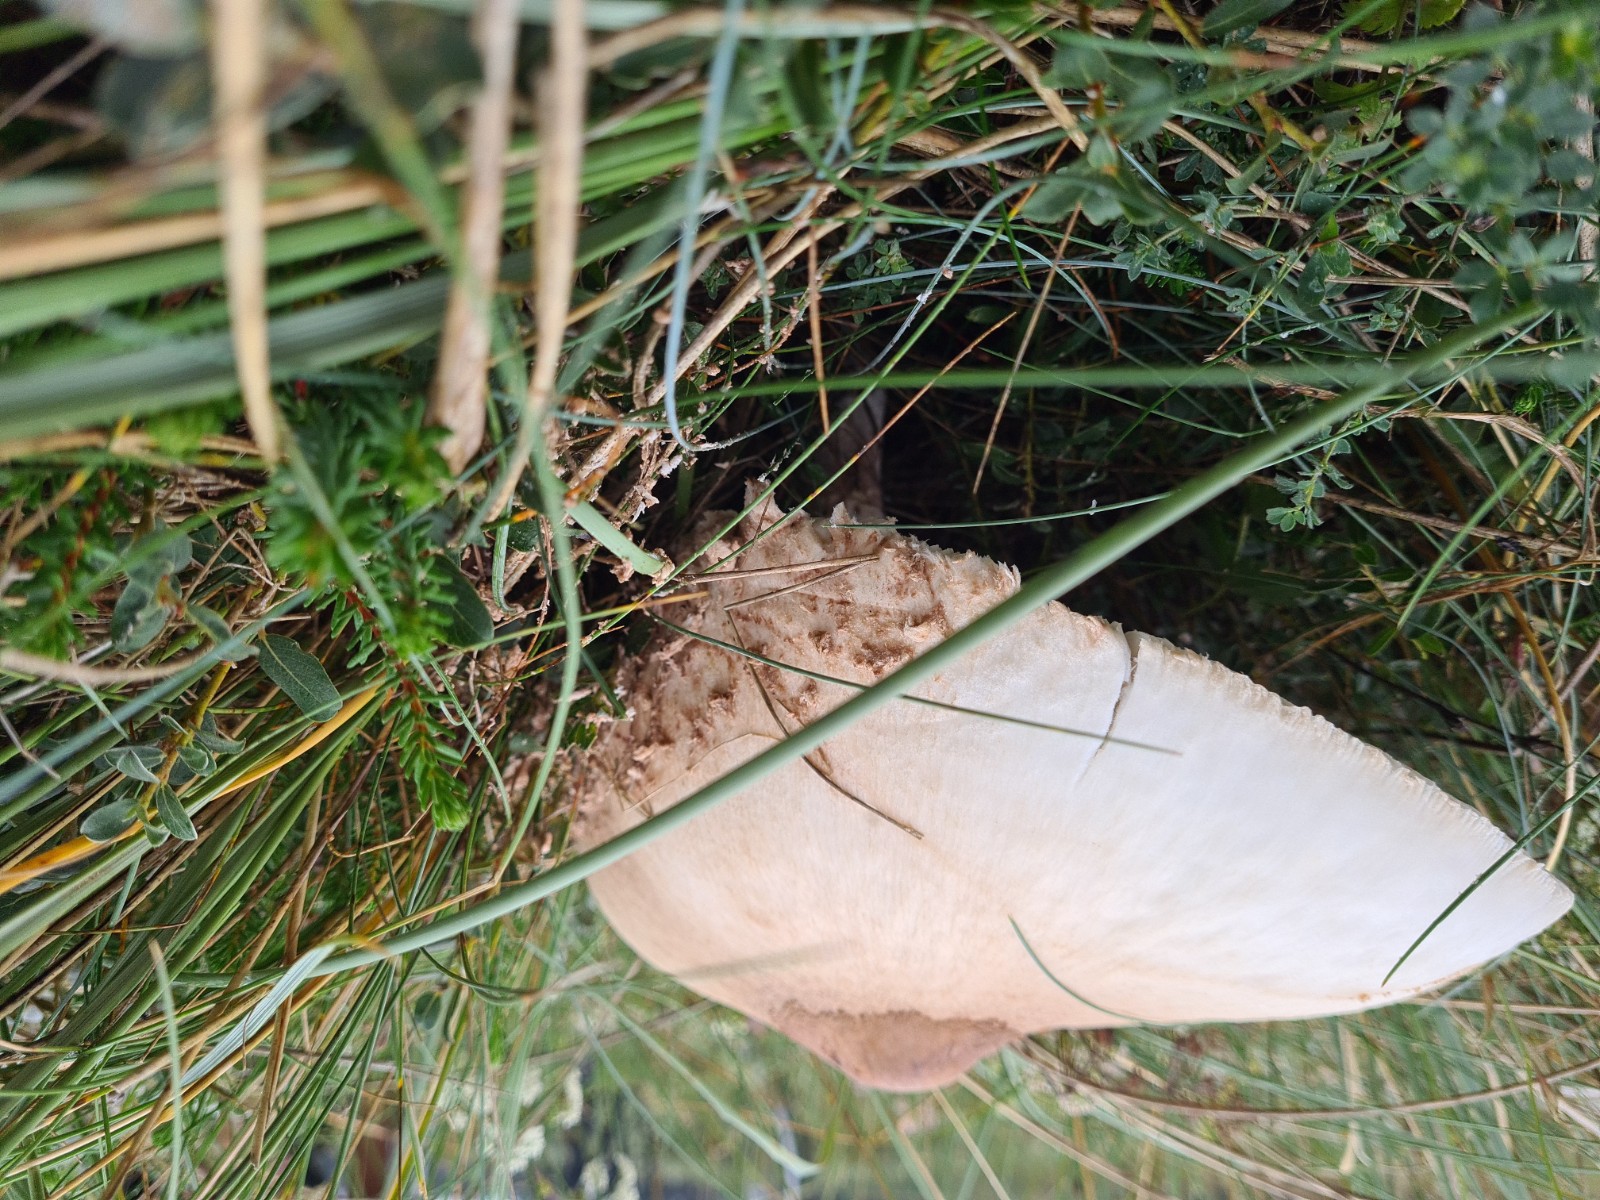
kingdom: Fungi
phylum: Basidiomycota
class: Agaricomycetes
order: Agaricales
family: Agaricaceae
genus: Macrolepiota
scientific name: Macrolepiota
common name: kæmpeparasolhat
